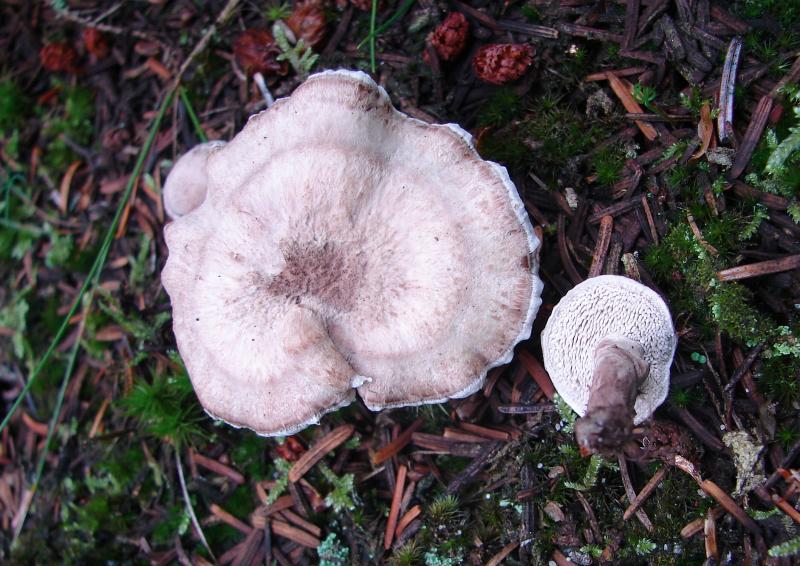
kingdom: Fungi
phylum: Basidiomycota
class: Agaricomycetes
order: Thelephorales
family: Thelephoraceae
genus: Phellodon
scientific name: Phellodon violascens
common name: violetbrun duftpigsvamp
